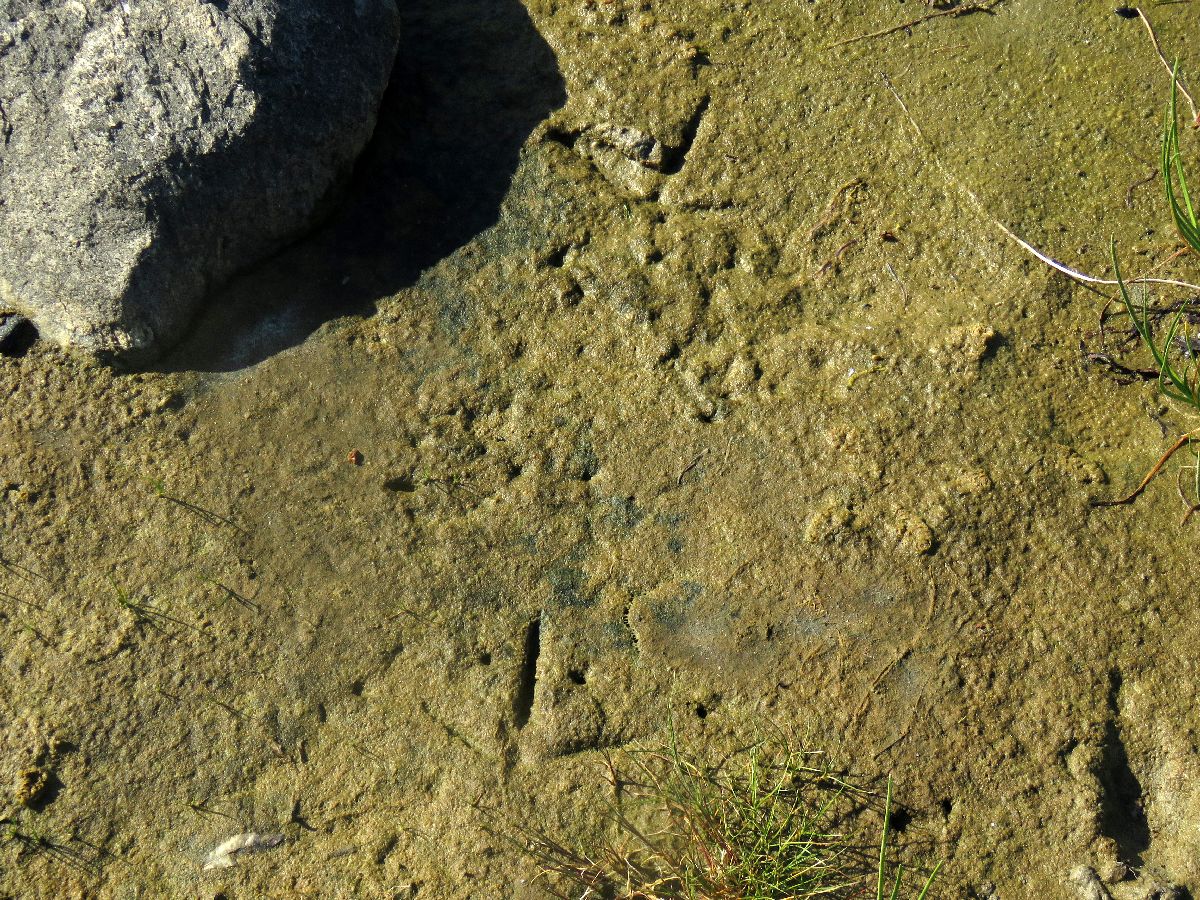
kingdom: Animalia
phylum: Chordata
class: Aves
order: Gruiformes
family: Gruidae
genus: Grus
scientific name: Grus grus
